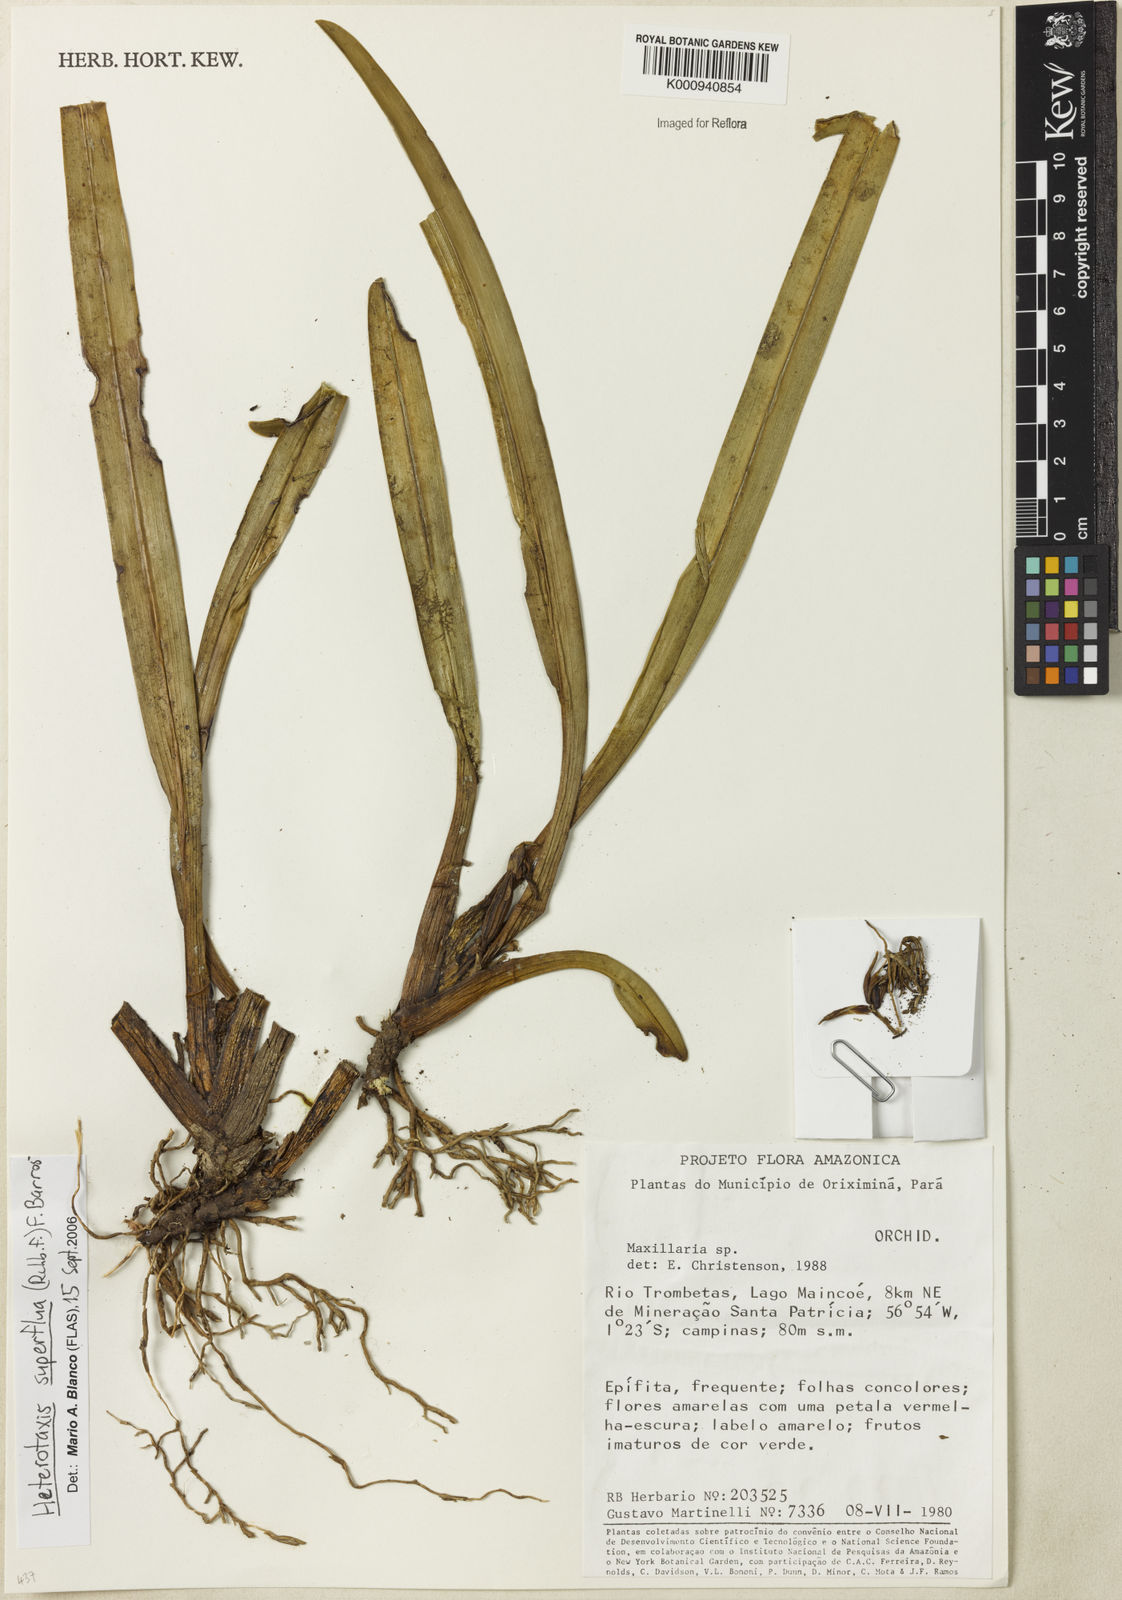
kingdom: Plantae
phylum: Tracheophyta
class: Liliopsida
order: Asparagales
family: Orchidaceae
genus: Maxillaria
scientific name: Maxillaria superflua
